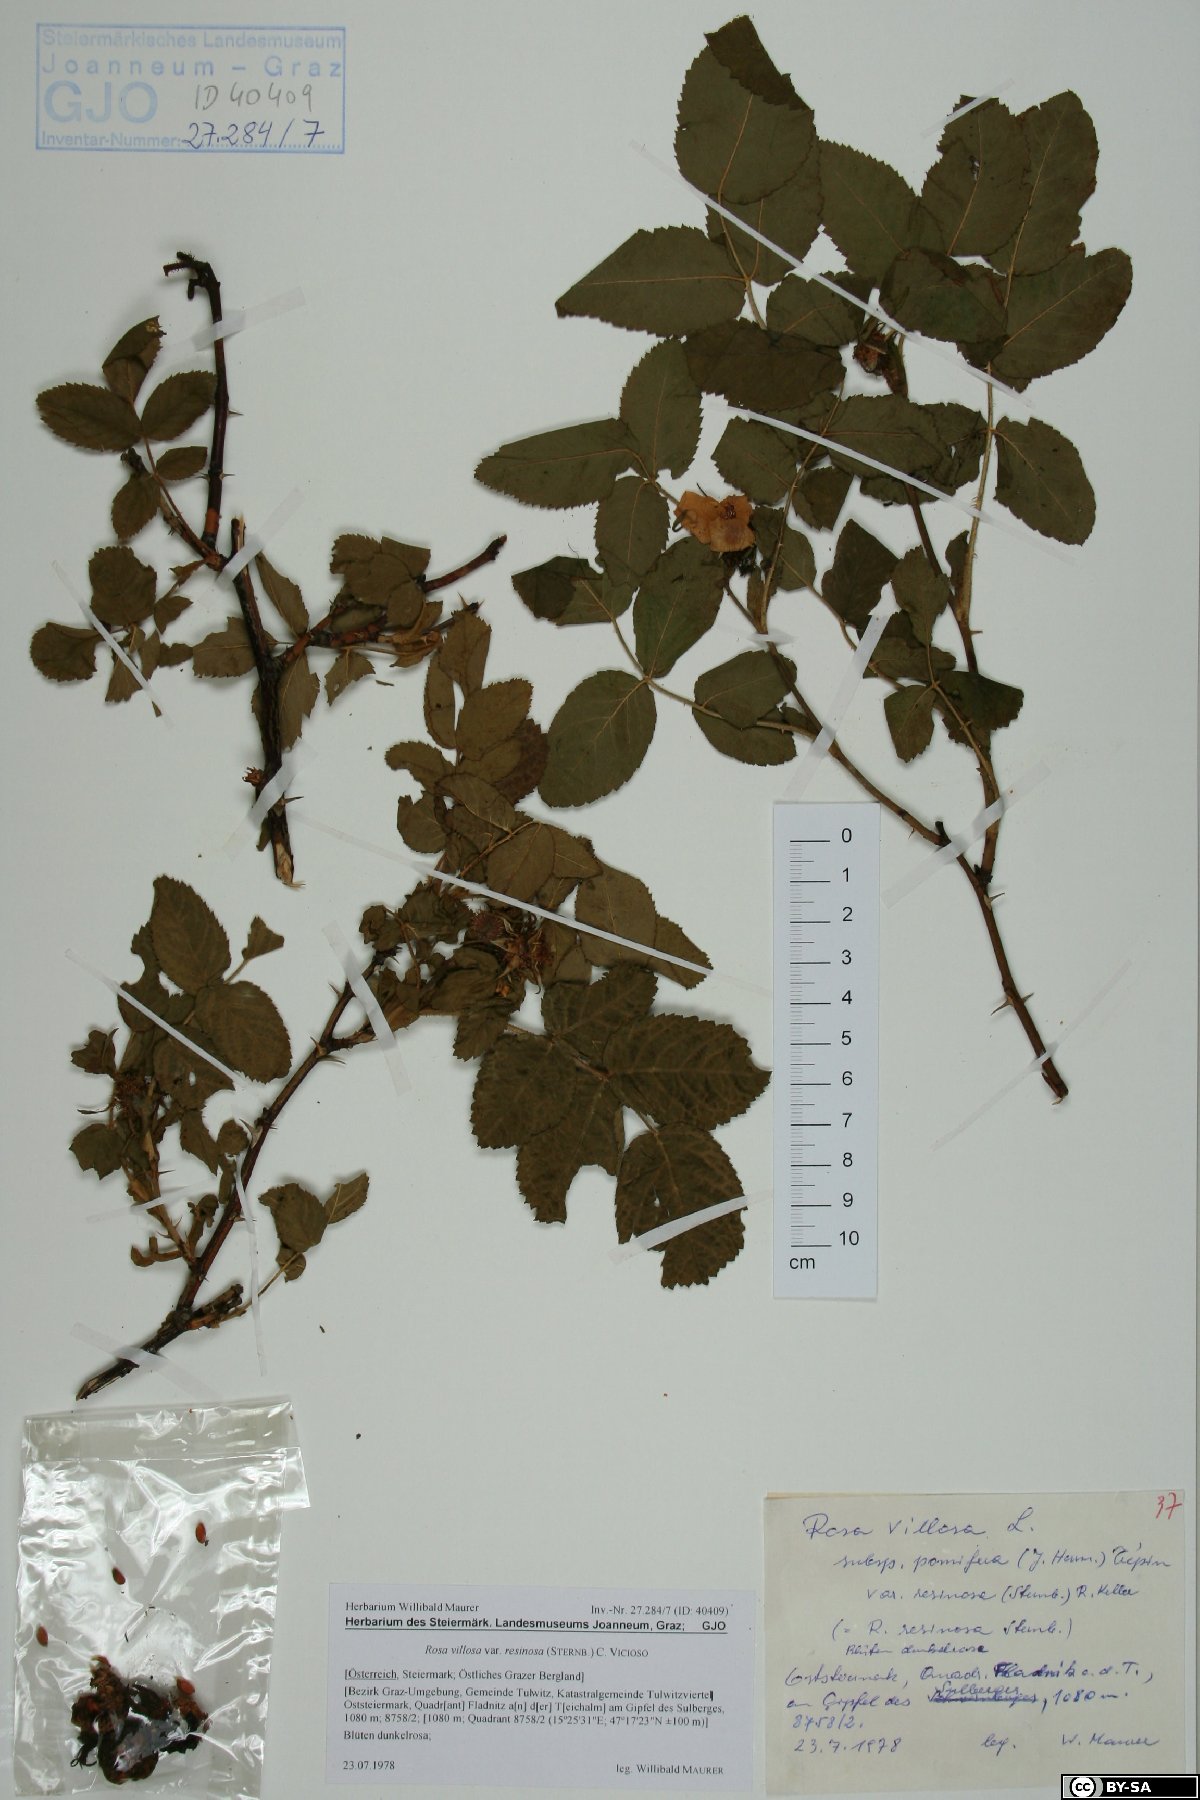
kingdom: Plantae
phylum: Tracheophyta
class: Magnoliopsida
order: Rosales
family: Rosaceae
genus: Rosa
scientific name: Rosa villosa
